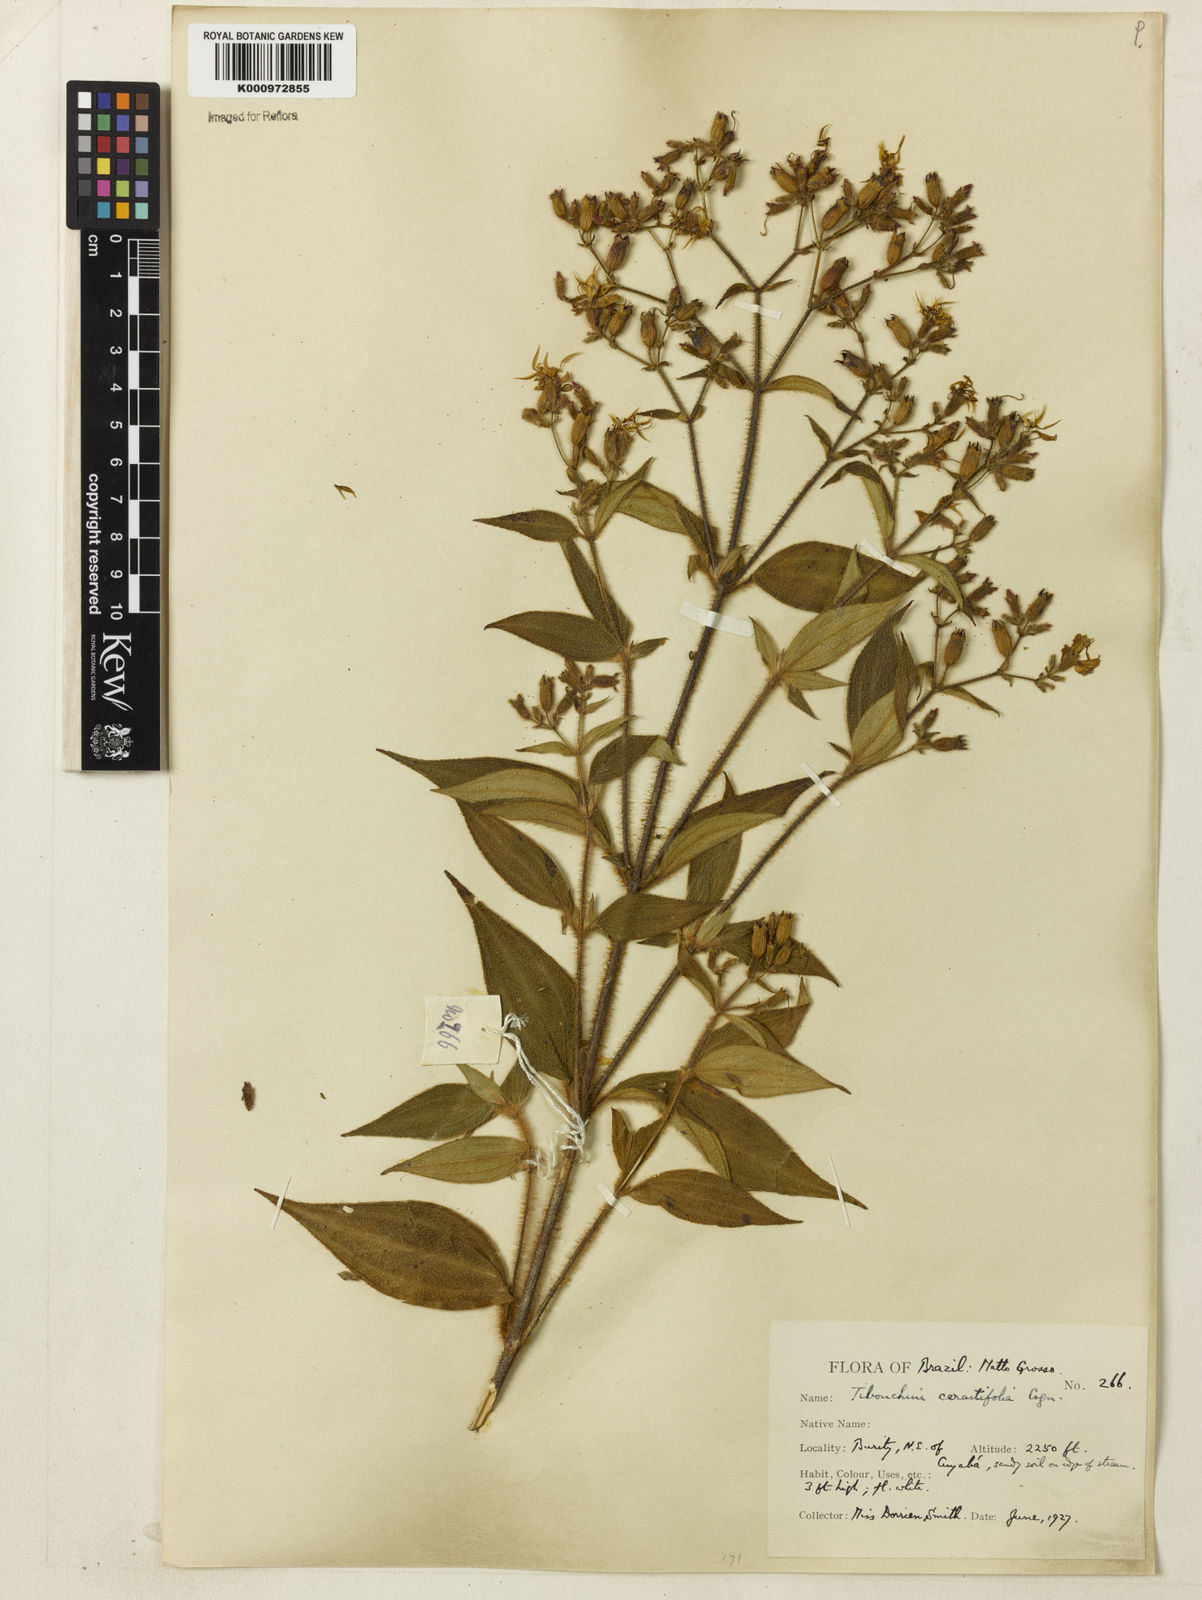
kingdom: Plantae
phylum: Tracheophyta
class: Magnoliopsida
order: Myrtales
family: Melastomataceae
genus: Chaetogastra
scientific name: Chaetogastra cerastifolia
